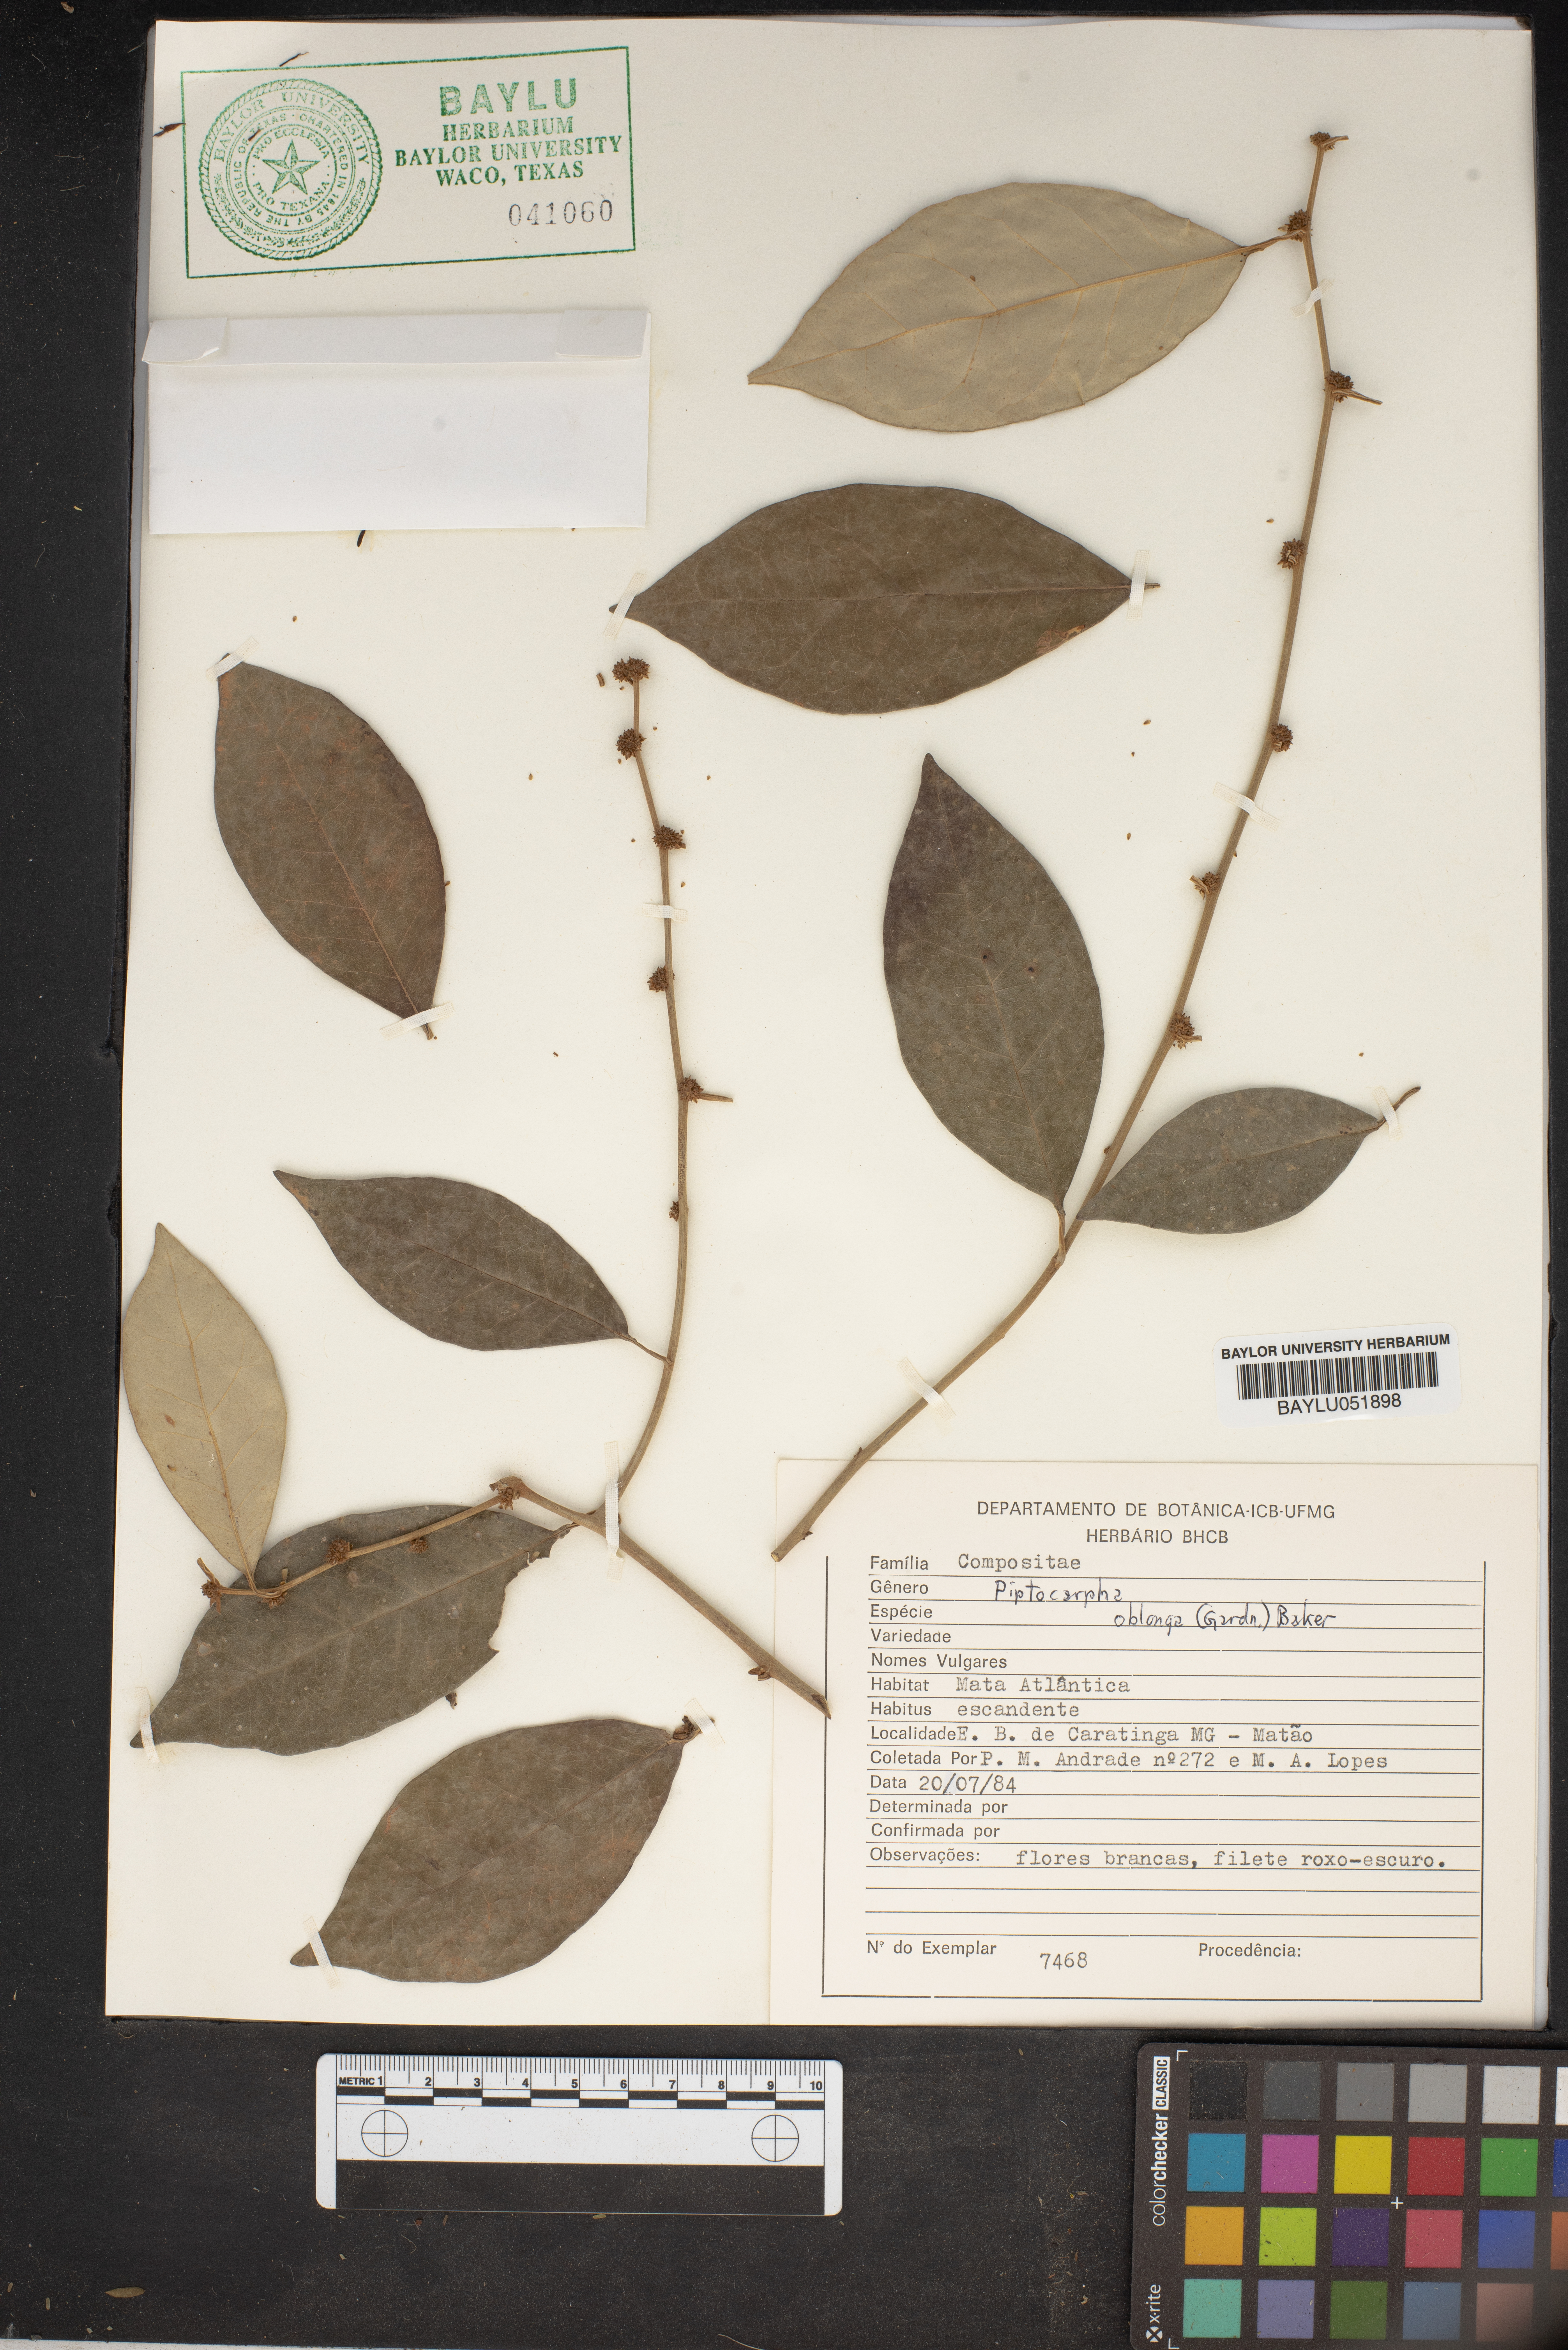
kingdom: Plantae
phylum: Tracheophyta
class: Magnoliopsida
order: Asterales
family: Asteraceae
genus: Piptocarpha
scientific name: Piptocarpha oblonga
